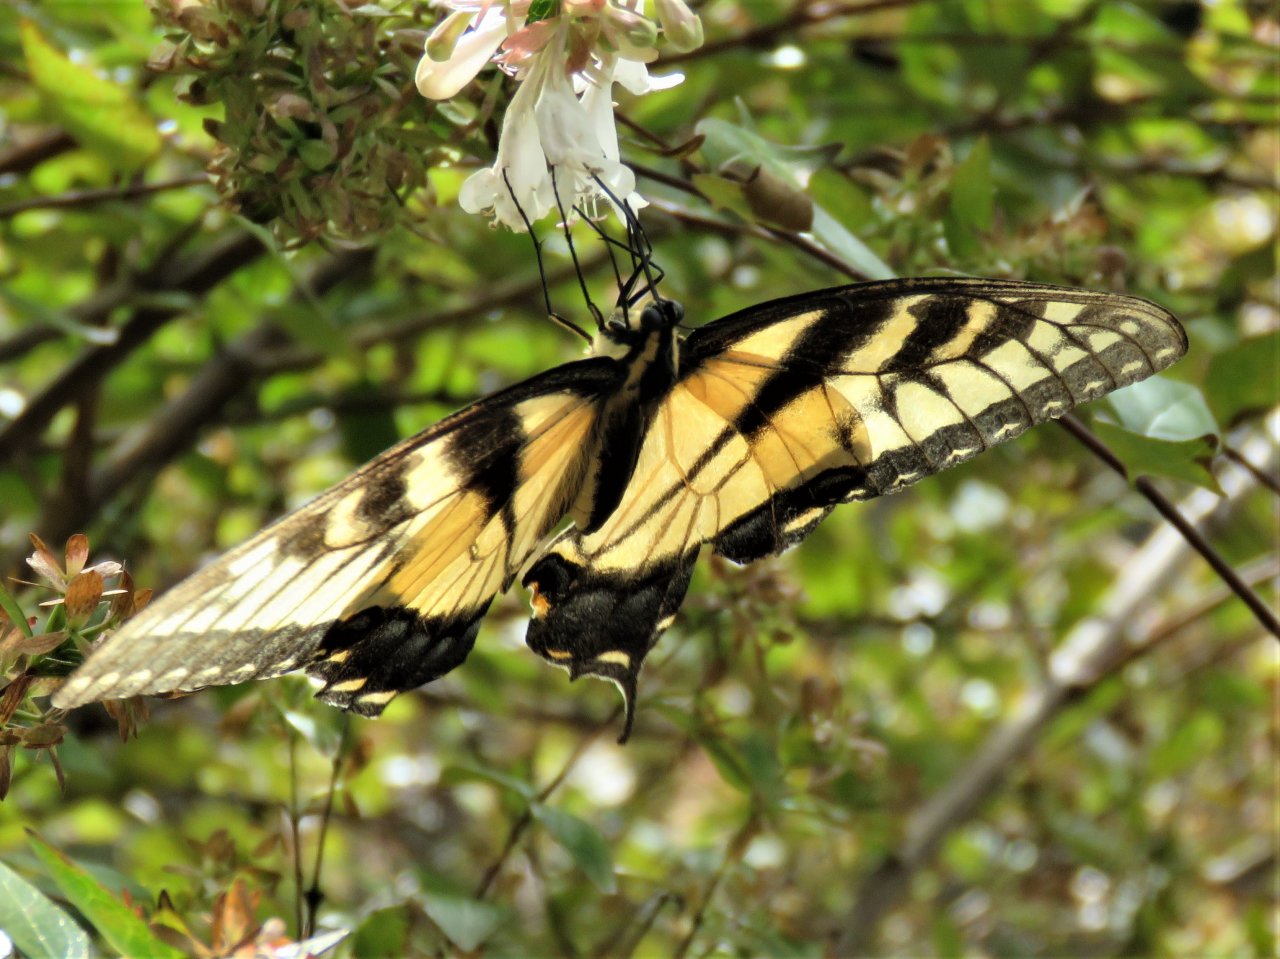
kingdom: Animalia
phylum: Arthropoda
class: Insecta
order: Lepidoptera
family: Papilionidae
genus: Pterourus
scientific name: Pterourus glaucus
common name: Eastern Tiger Swallowtail
